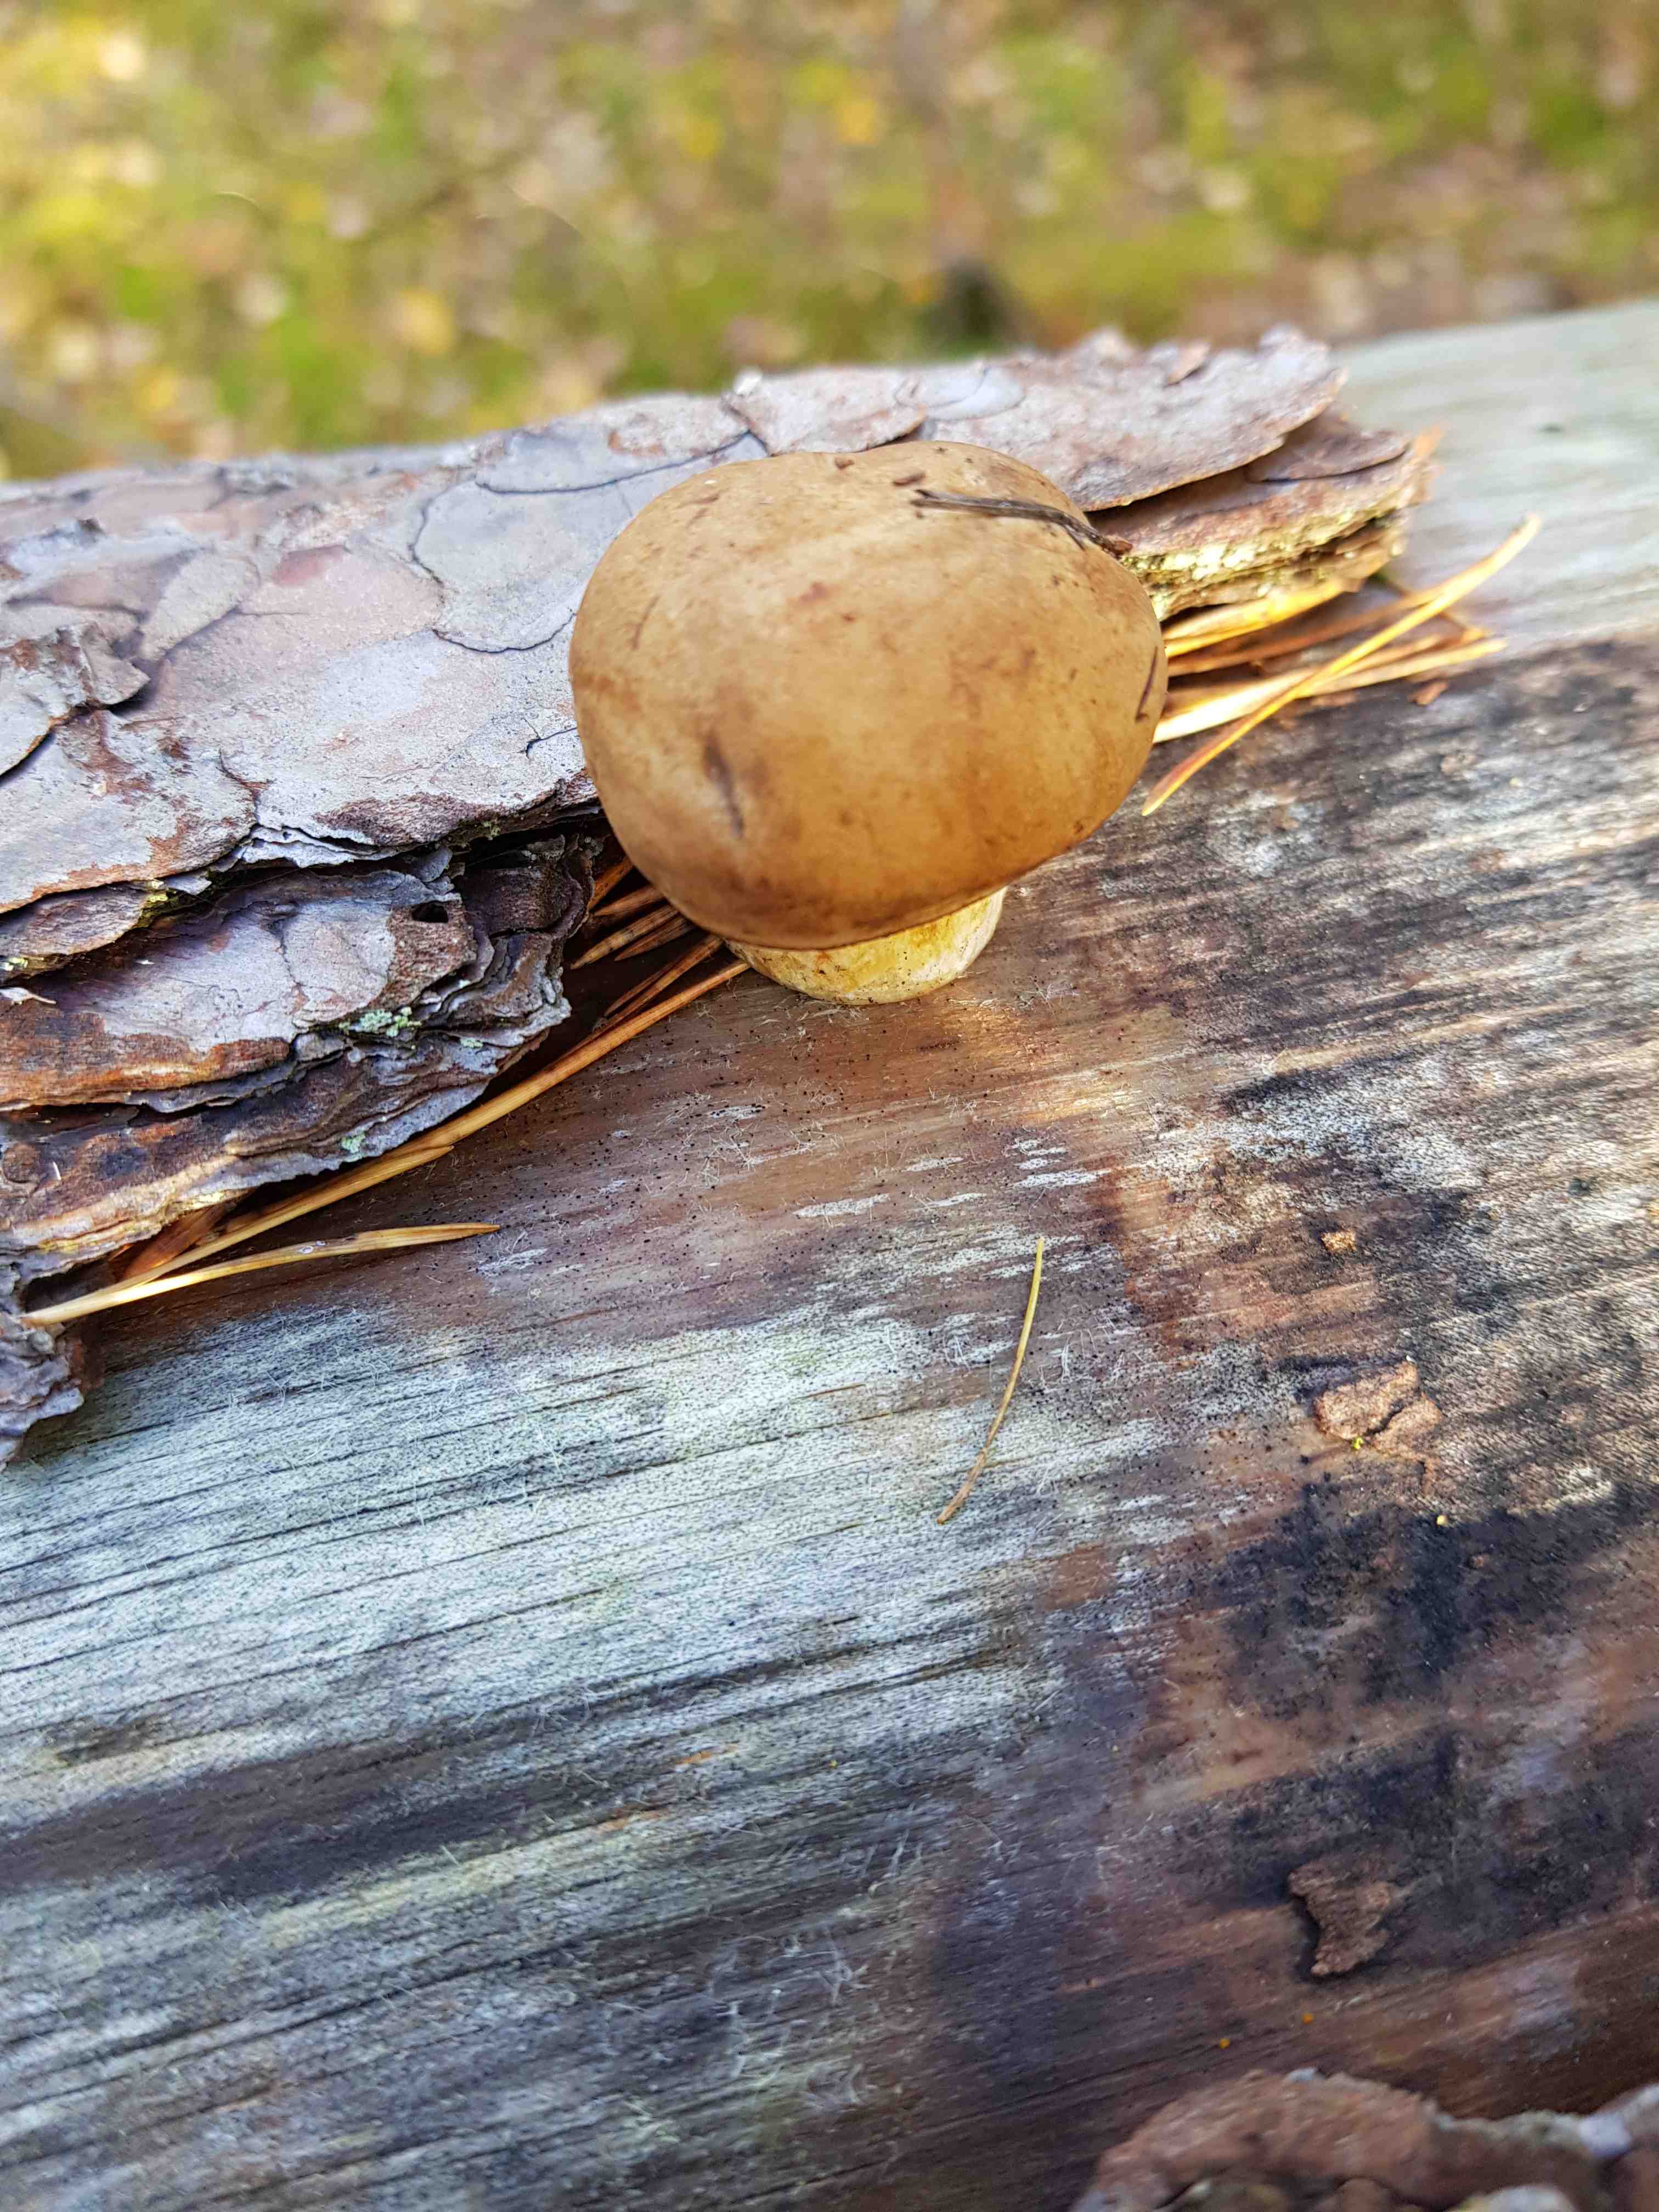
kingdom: Fungi
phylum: Basidiomycota
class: Agaricomycetes
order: Boletales
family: Boletaceae
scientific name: Boletaceae
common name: rørhatfamilien
